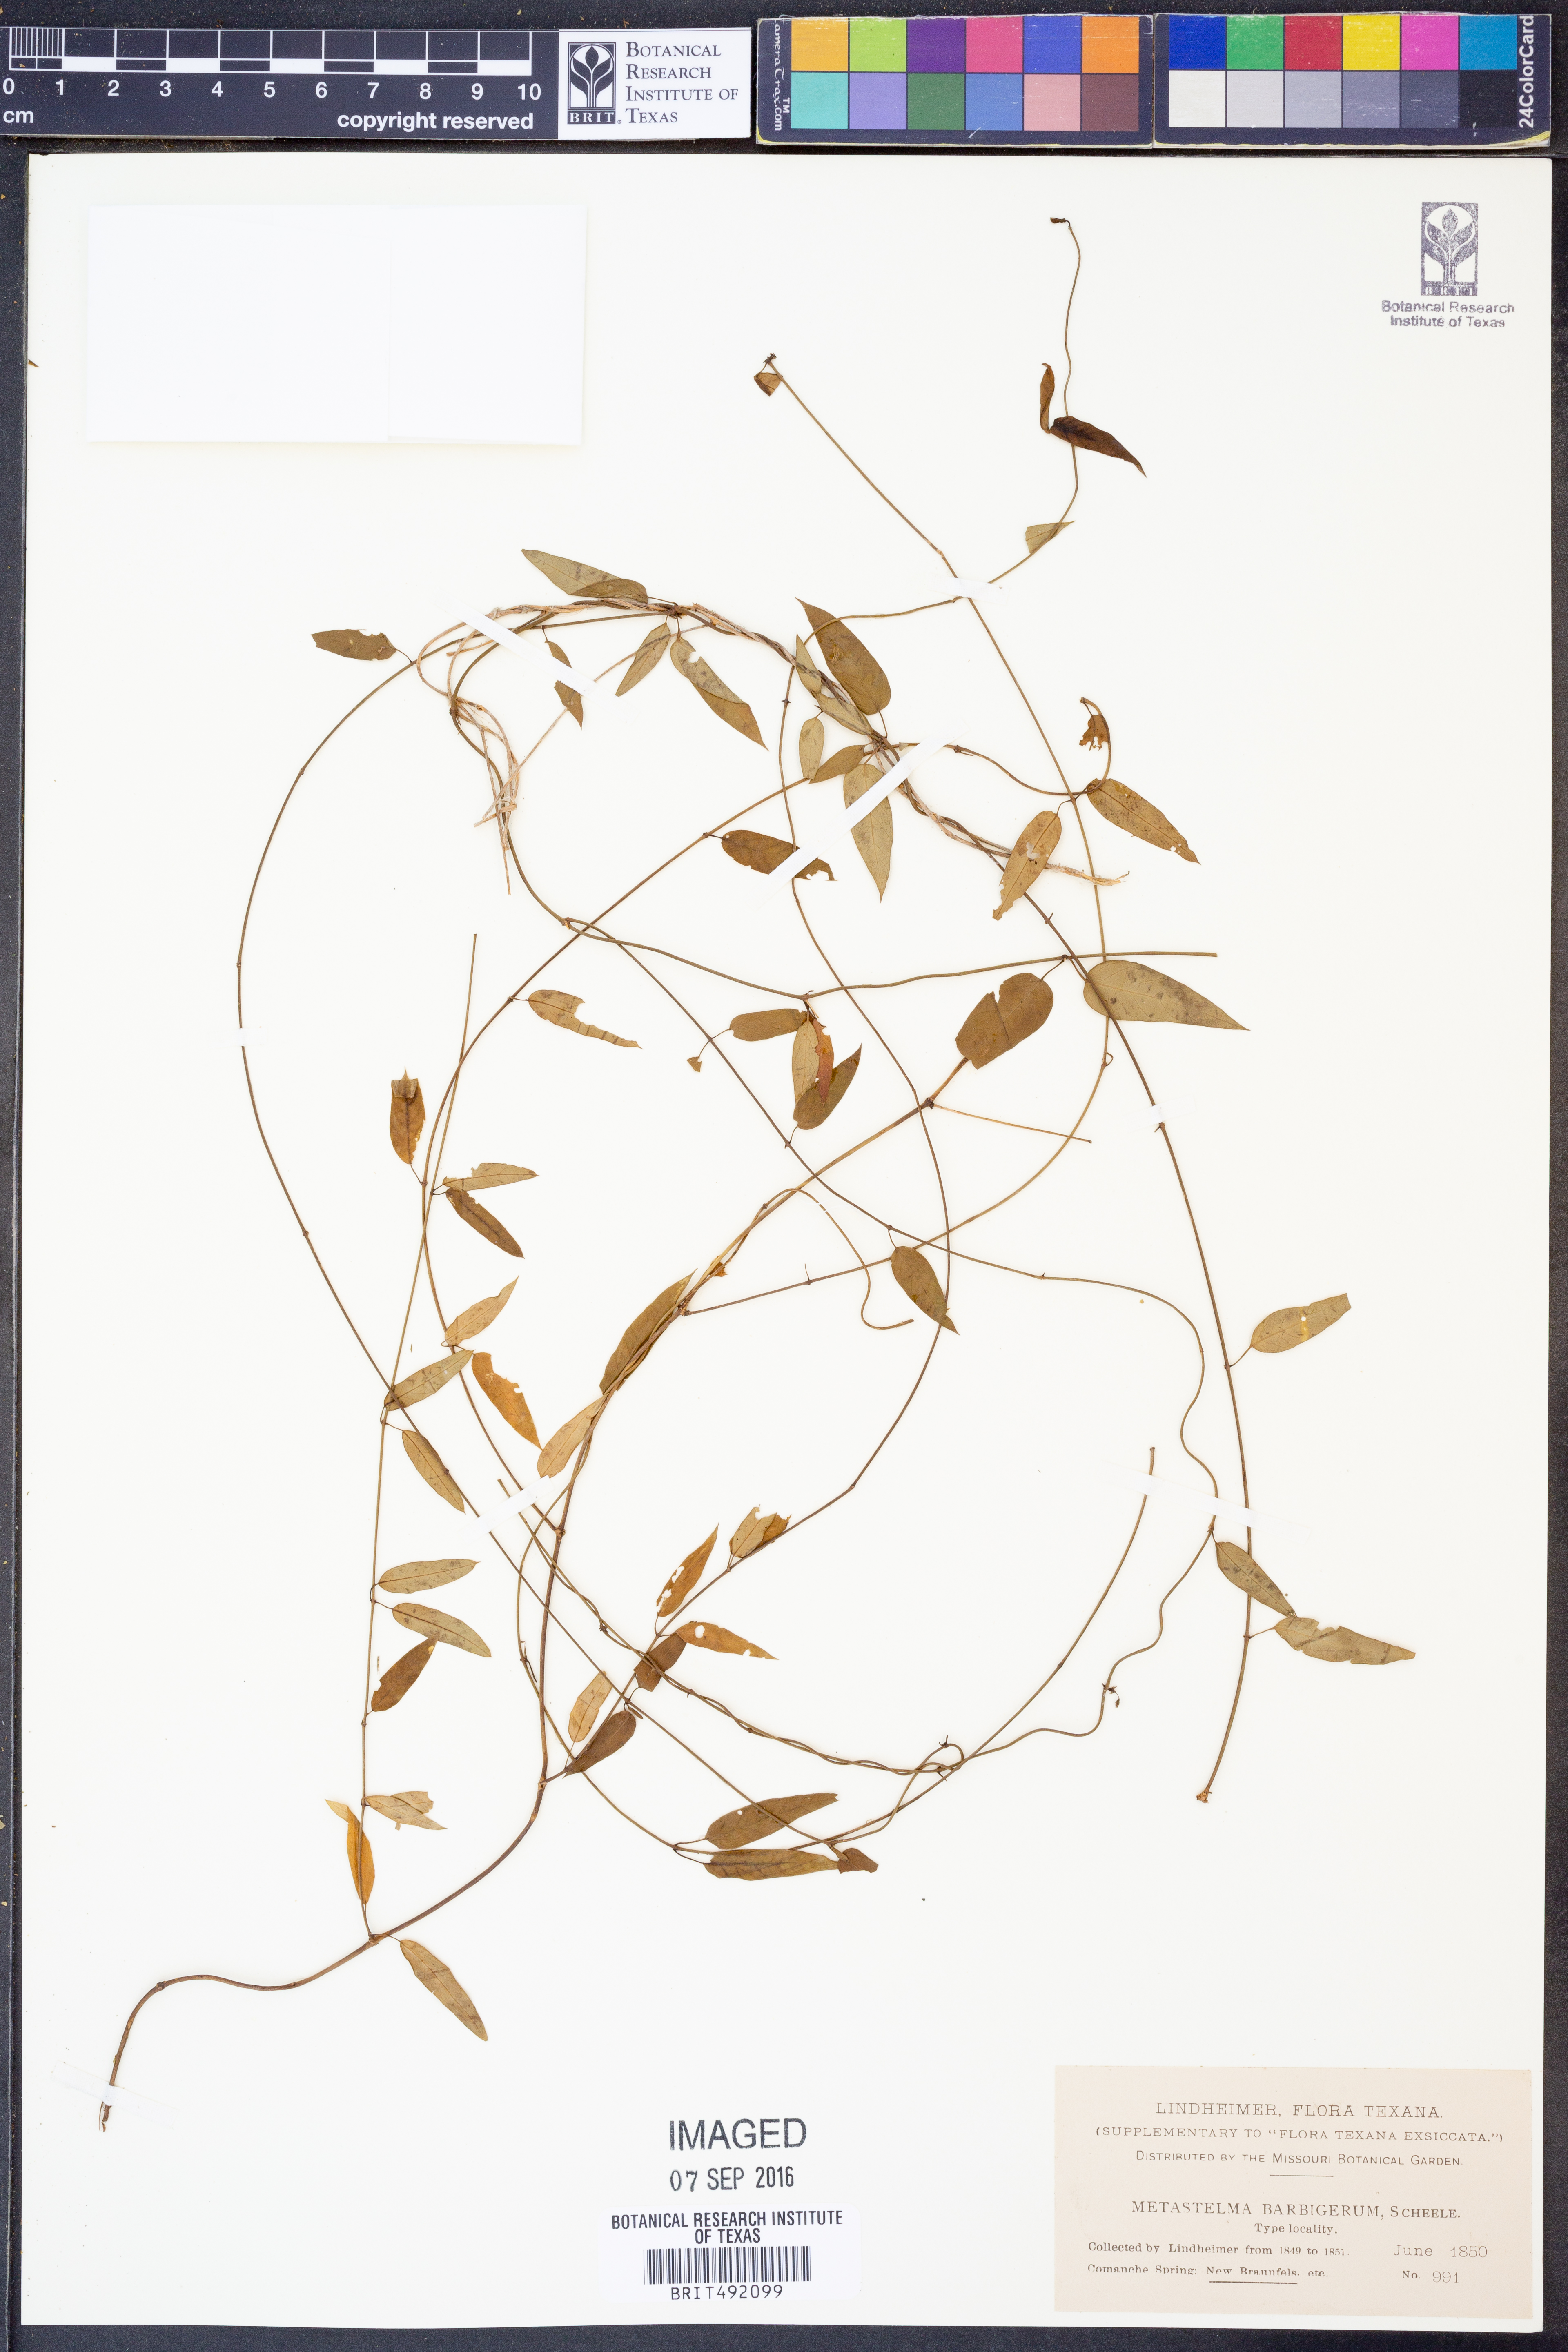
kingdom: Plantae
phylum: Tracheophyta
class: Magnoliopsida
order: Gentianales
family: Apocynaceae
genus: Metastelma
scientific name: Metastelma barbigerum
